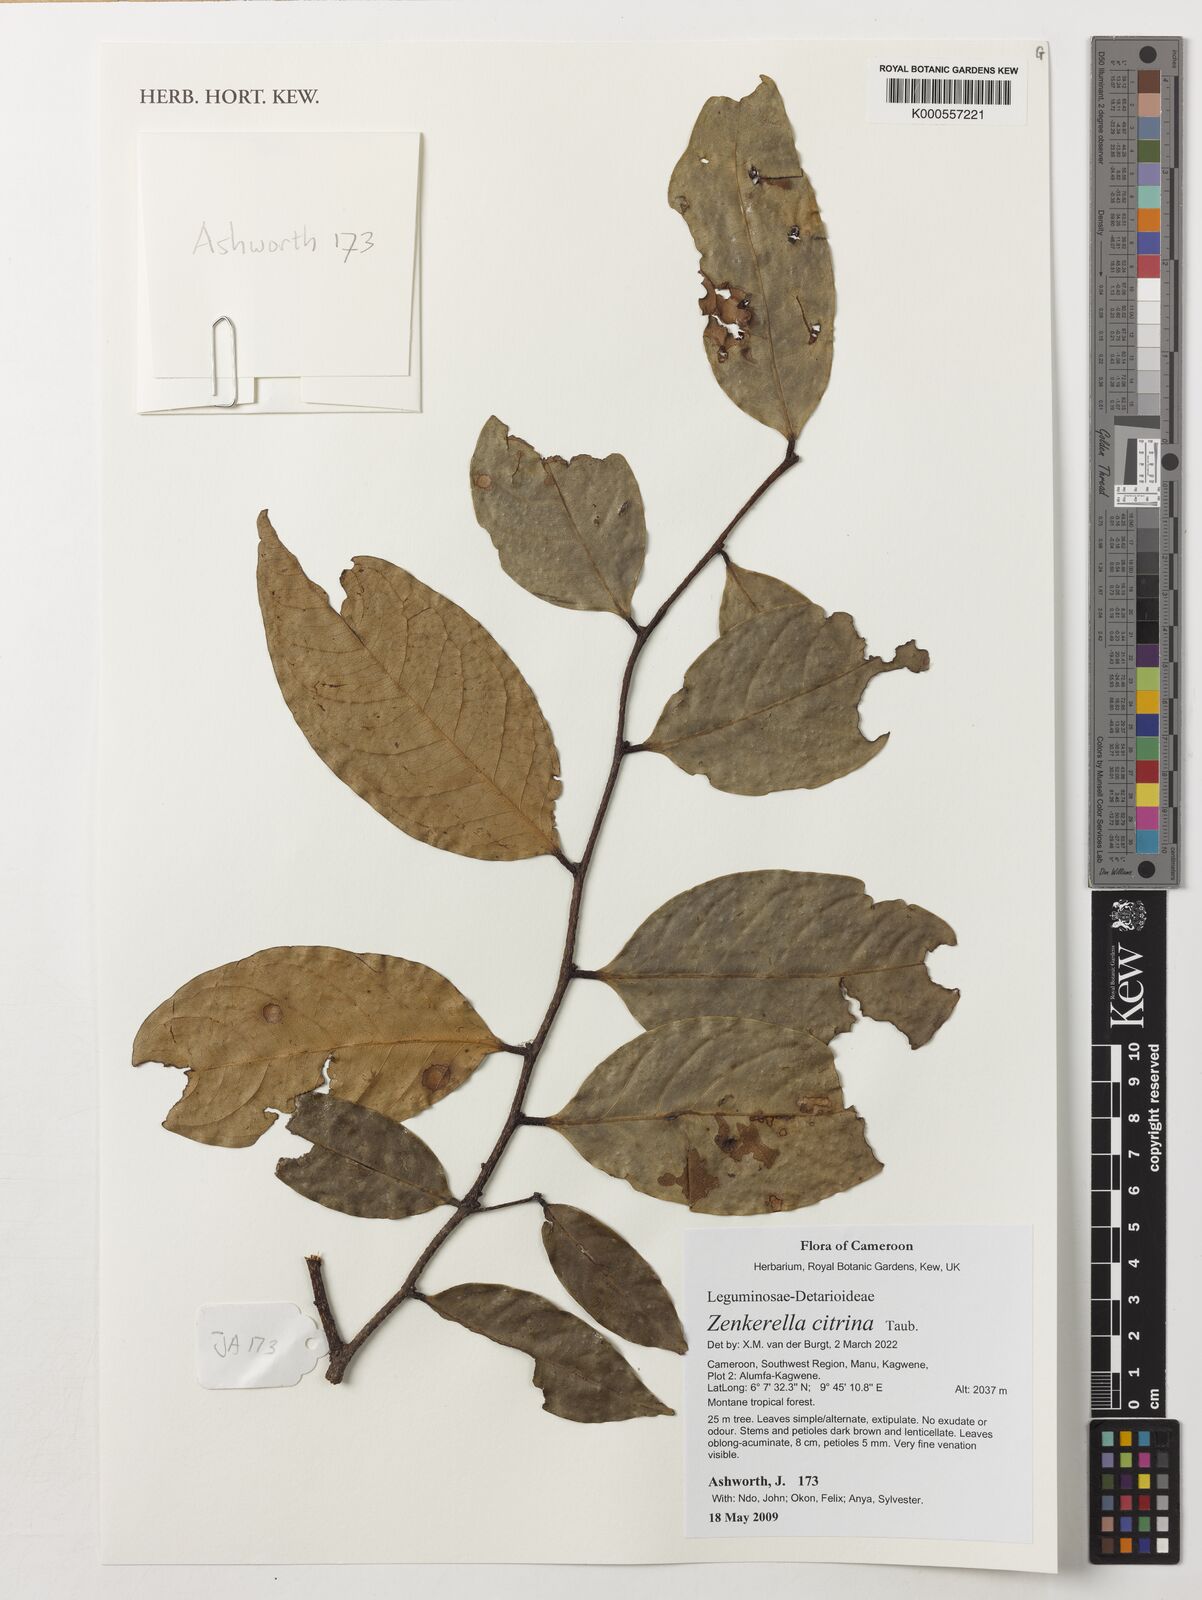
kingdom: Plantae
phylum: Tracheophyta
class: Magnoliopsida
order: Fabales
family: Fabaceae
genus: Zenkerella
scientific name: Zenkerella citrina
